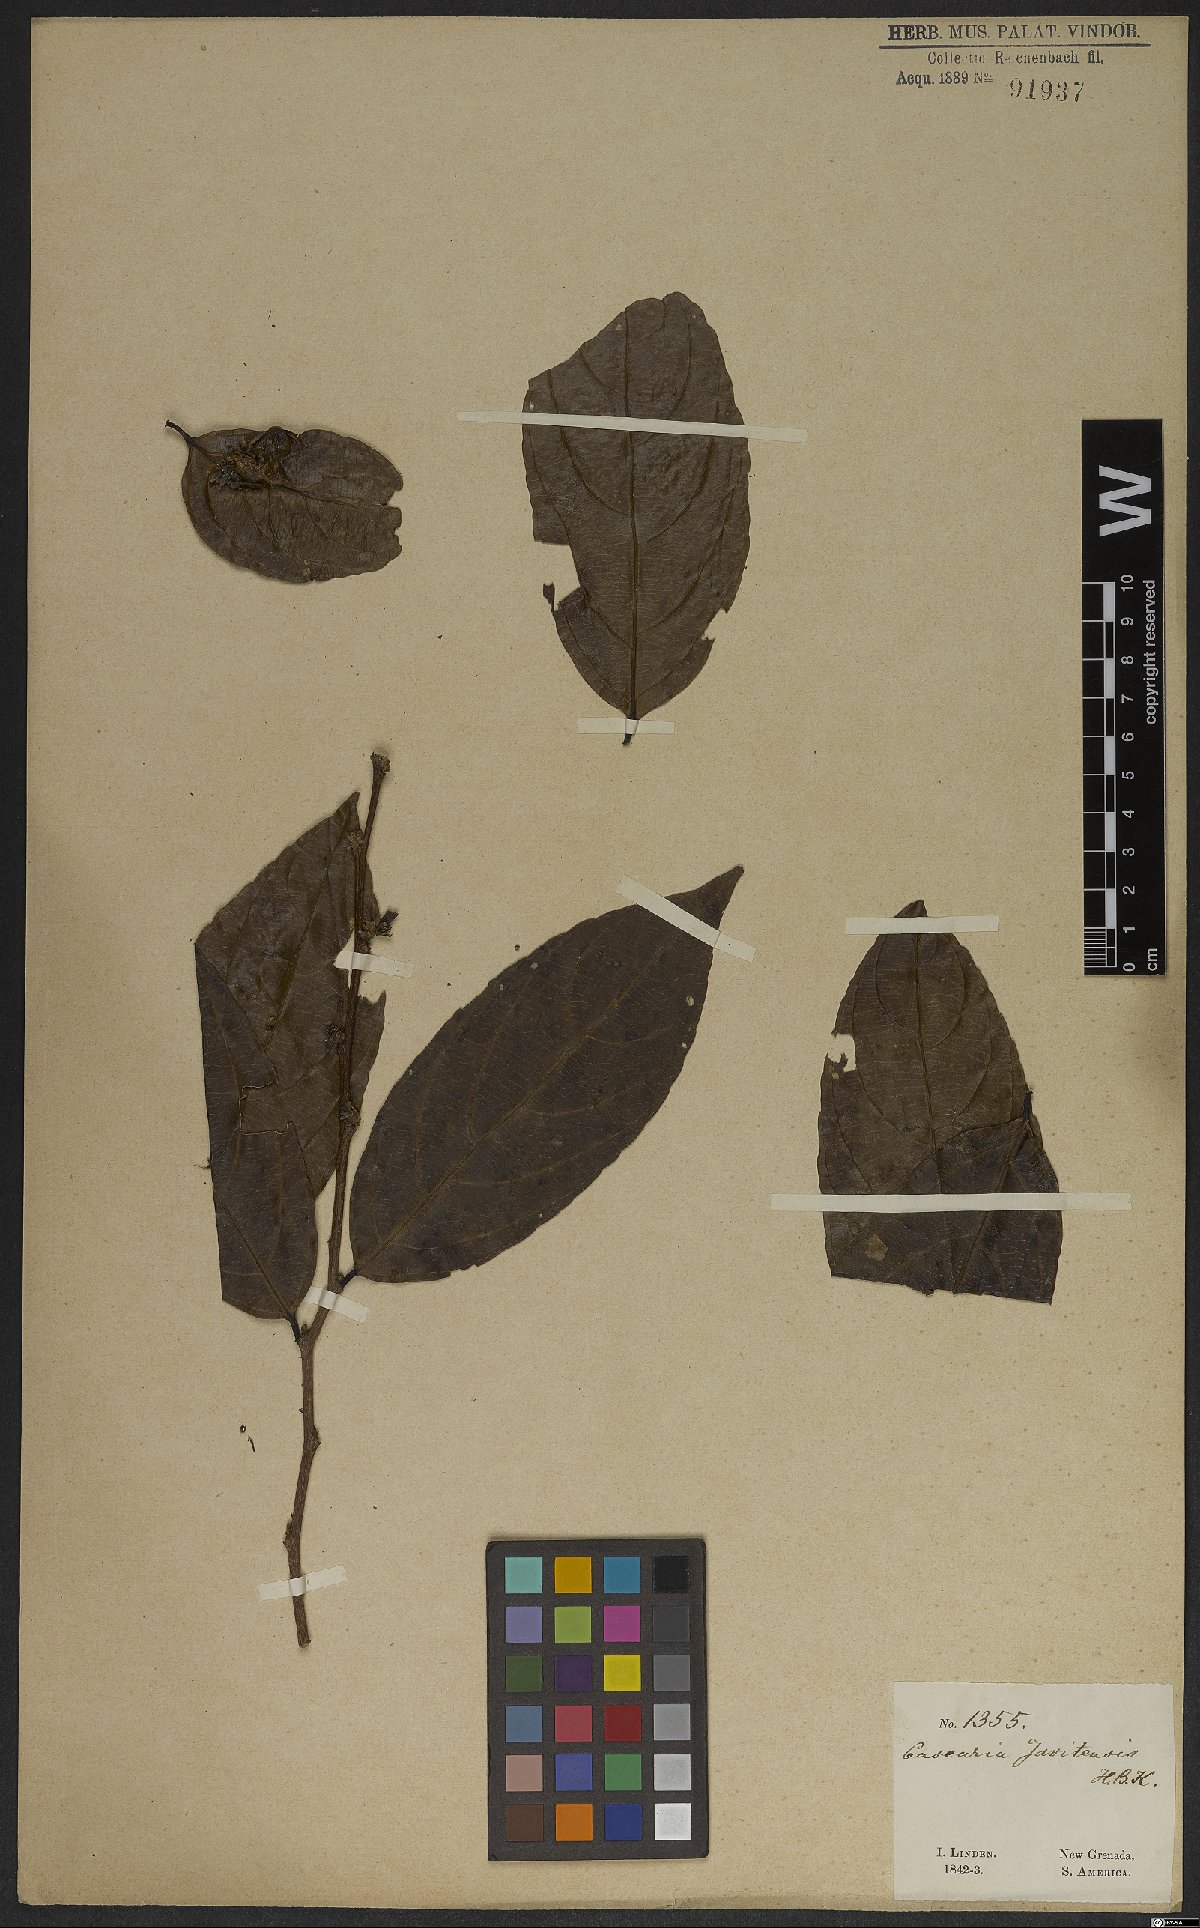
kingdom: Plantae
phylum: Tracheophyta
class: Magnoliopsida
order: Malpighiales
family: Salicaceae
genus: Piparea
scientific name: Piparea multiflora
